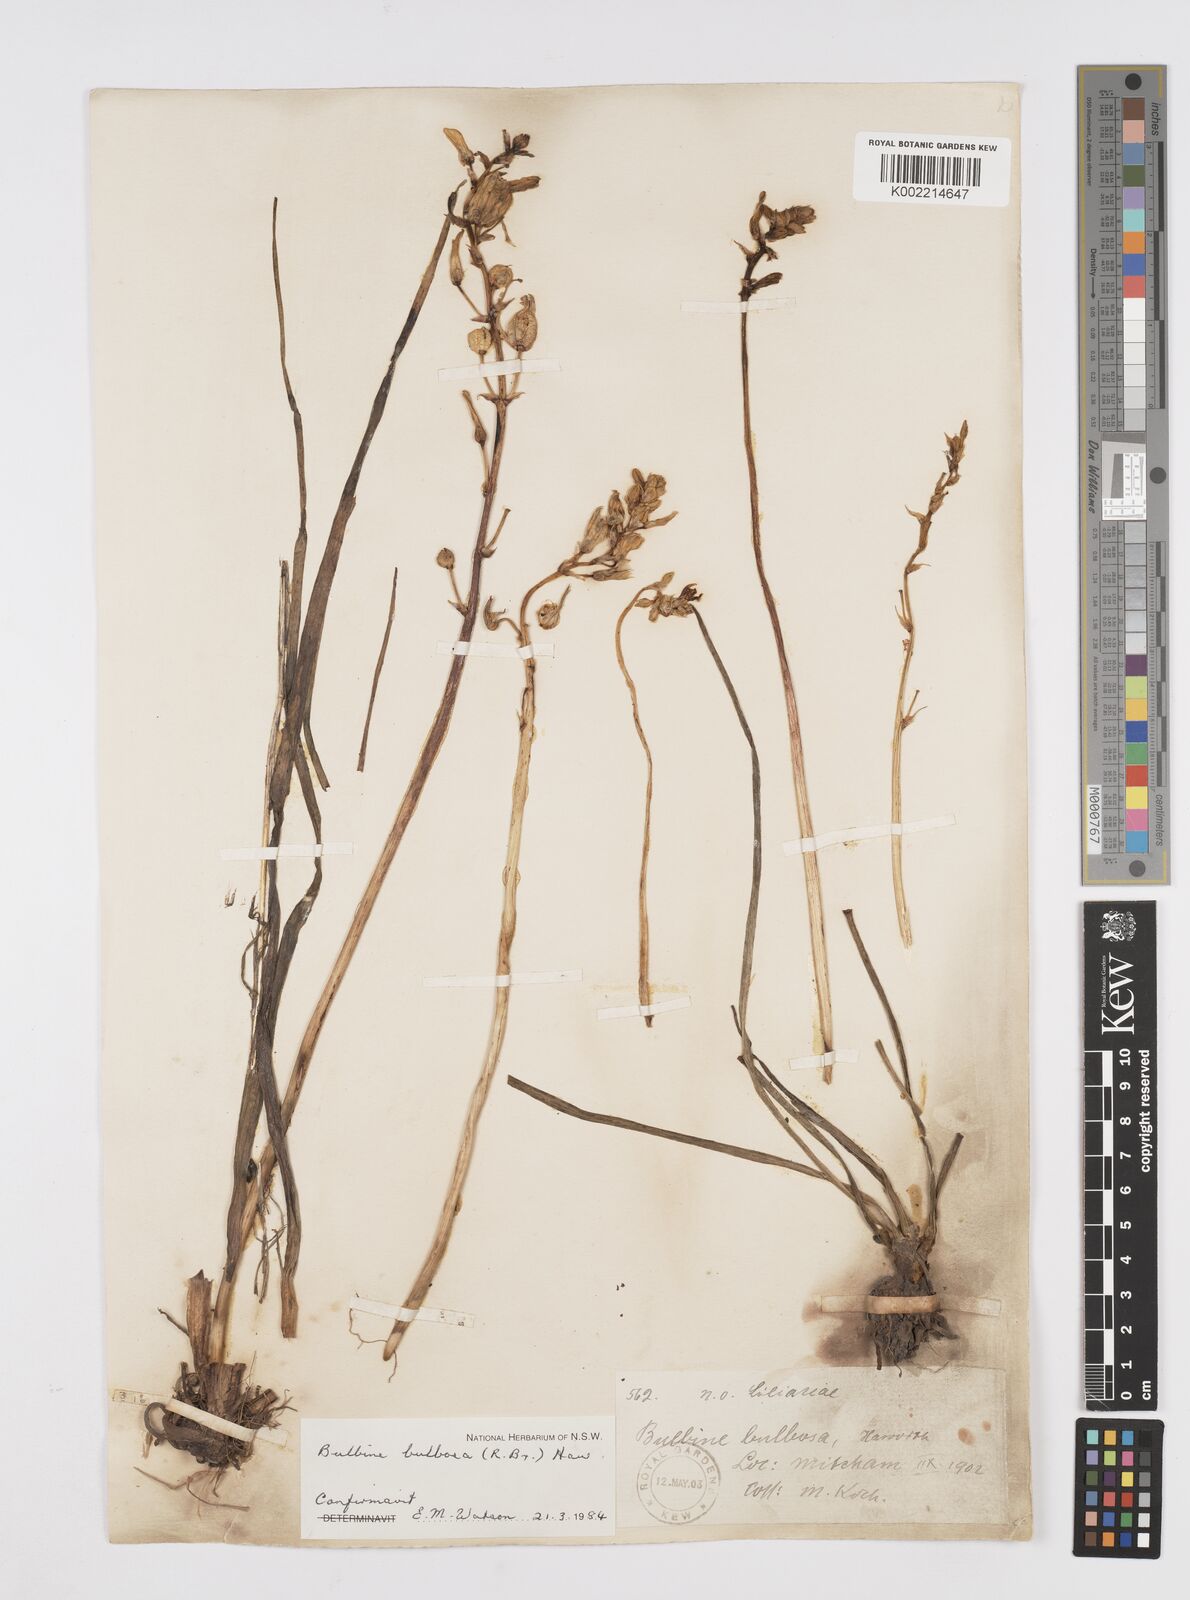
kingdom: Plantae
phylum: Tracheophyta
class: Liliopsida
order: Asparagales
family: Asphodelaceae
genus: Bulbine
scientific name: Bulbine bulbosa
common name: Golden-lily
